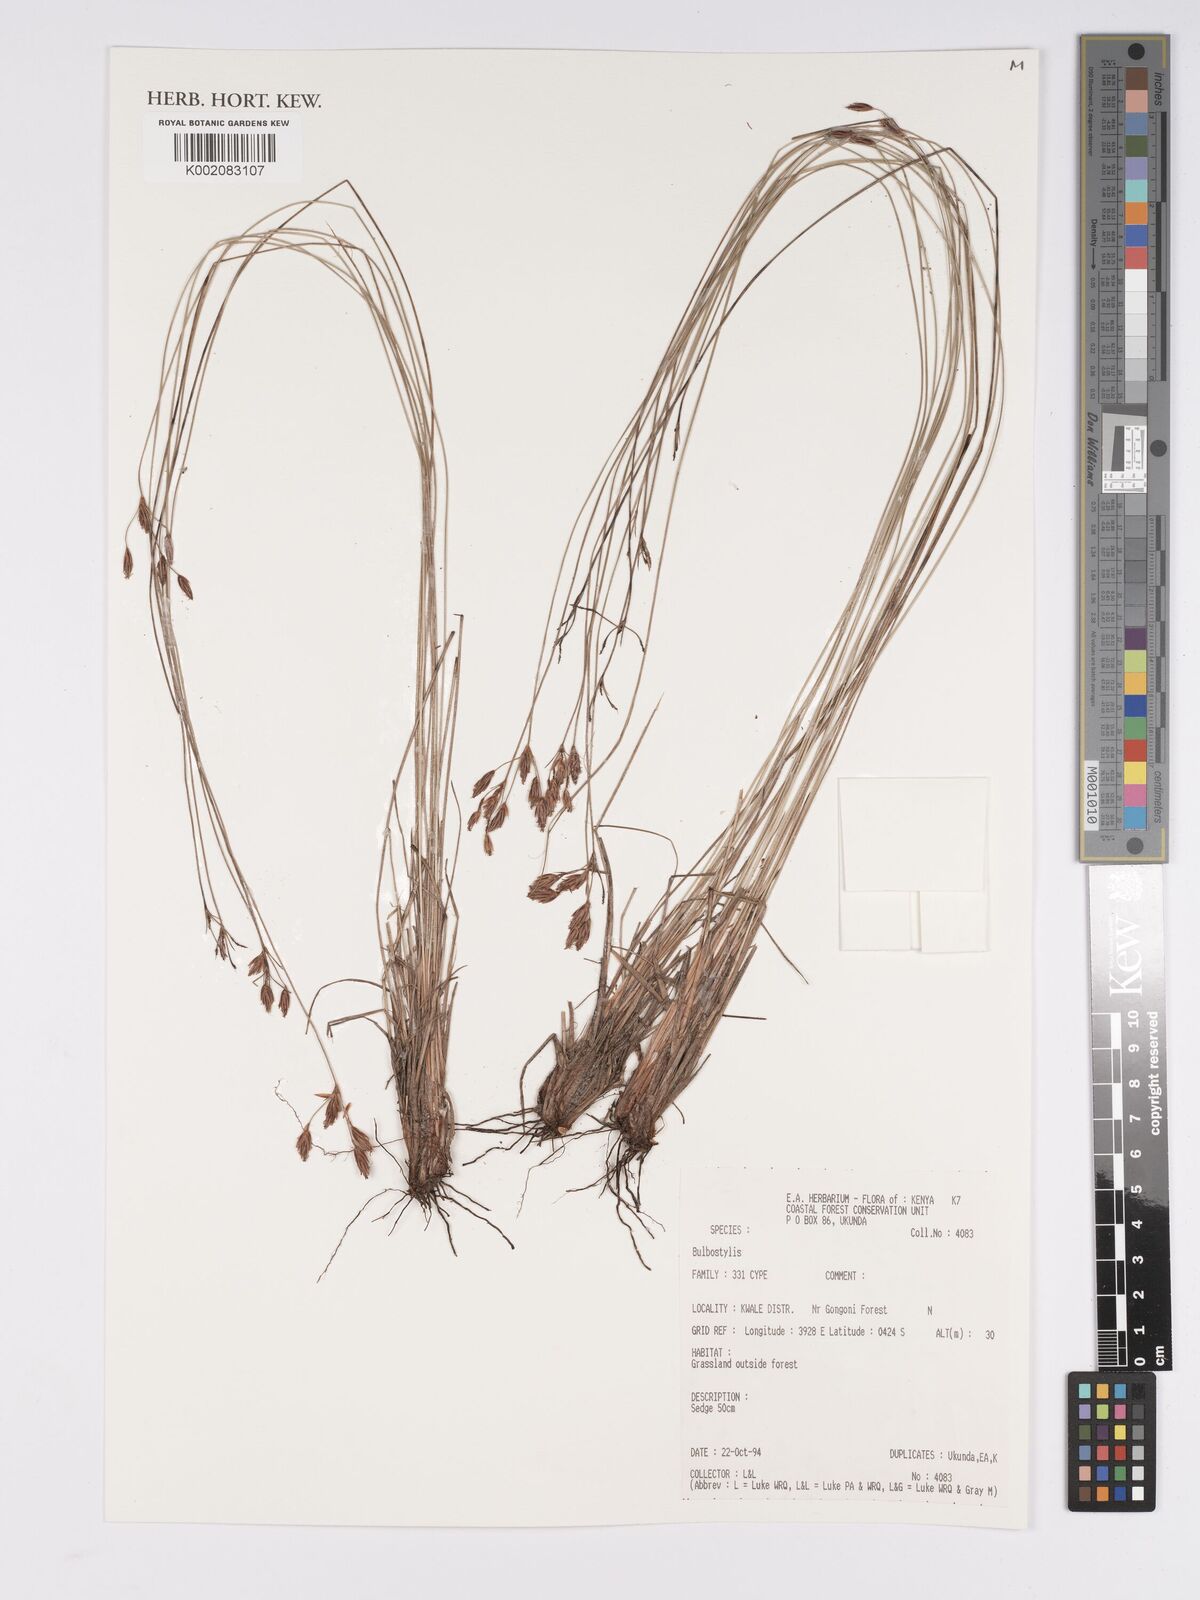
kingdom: Plantae
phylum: Tracheophyta
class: Magnoliopsida
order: Asterales
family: Asteraceae
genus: Bulbostylis
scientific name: Bulbostylis
